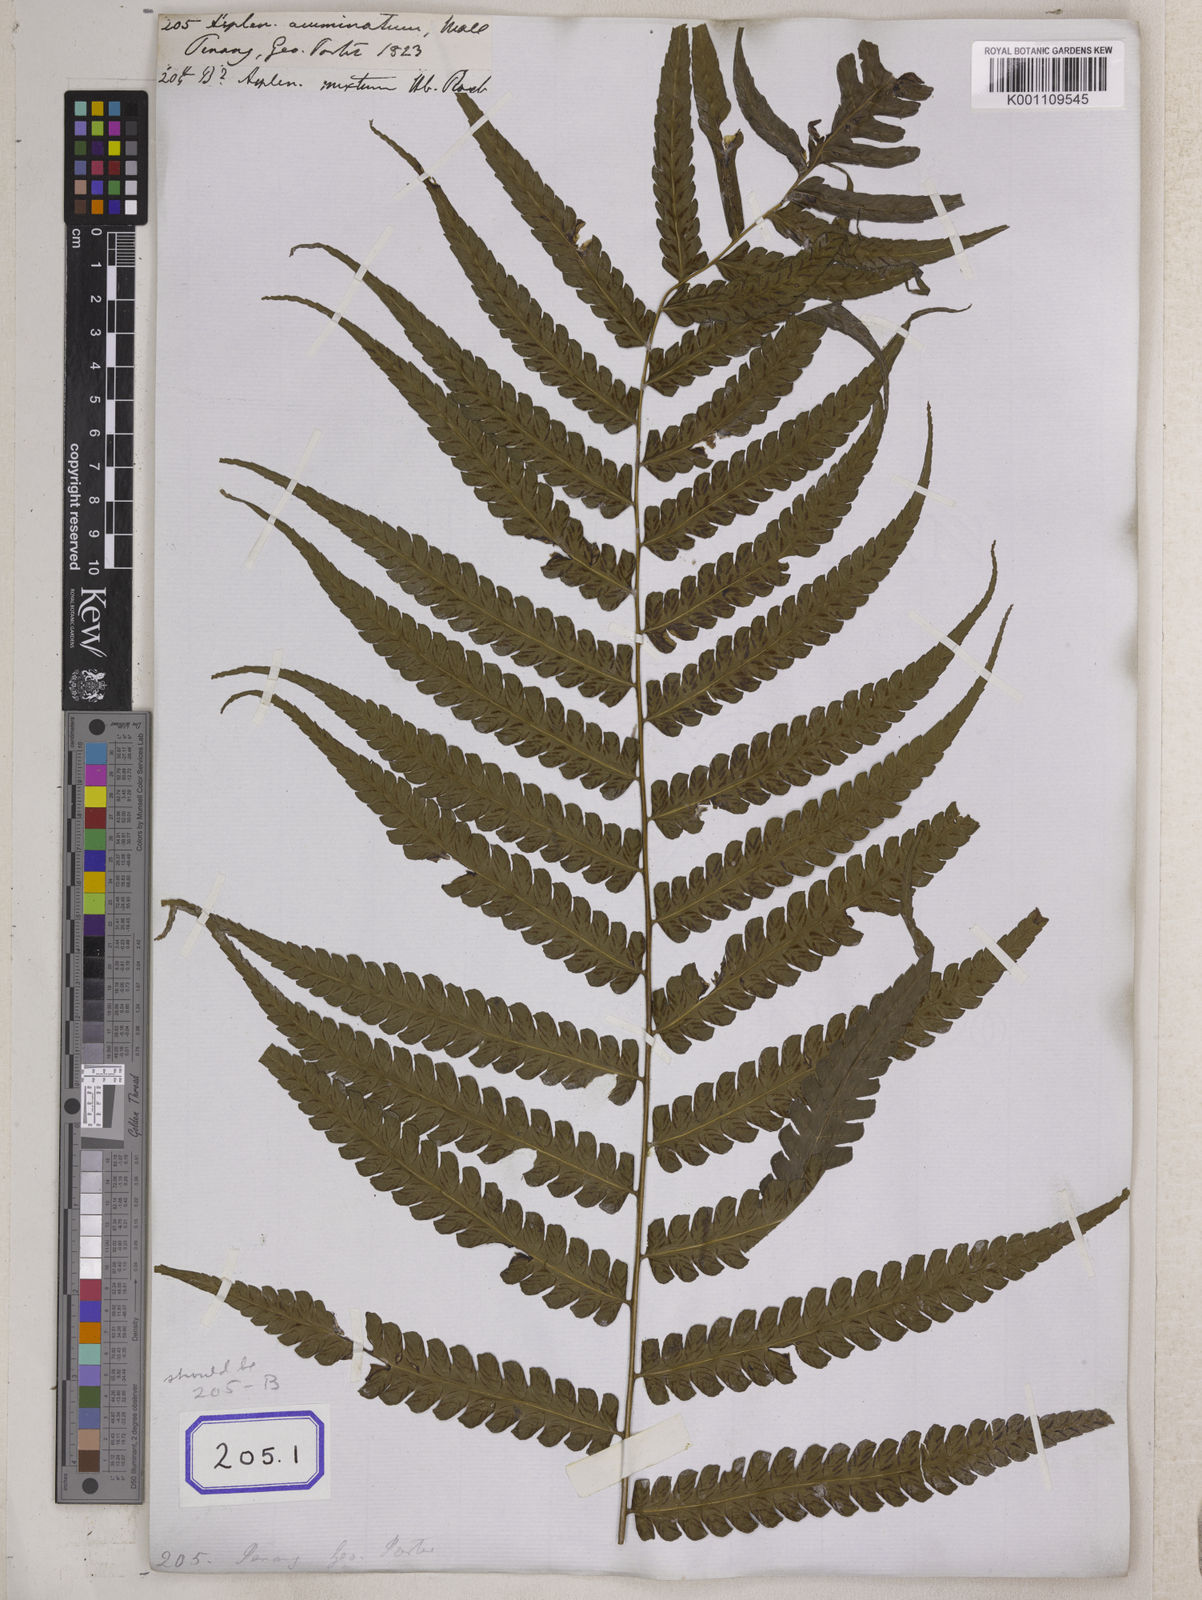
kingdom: Plantae
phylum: Tracheophyta
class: Polypodiopsida
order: Polypodiales
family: Athyriaceae
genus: Diplazium
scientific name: Diplazium schkuhrii
